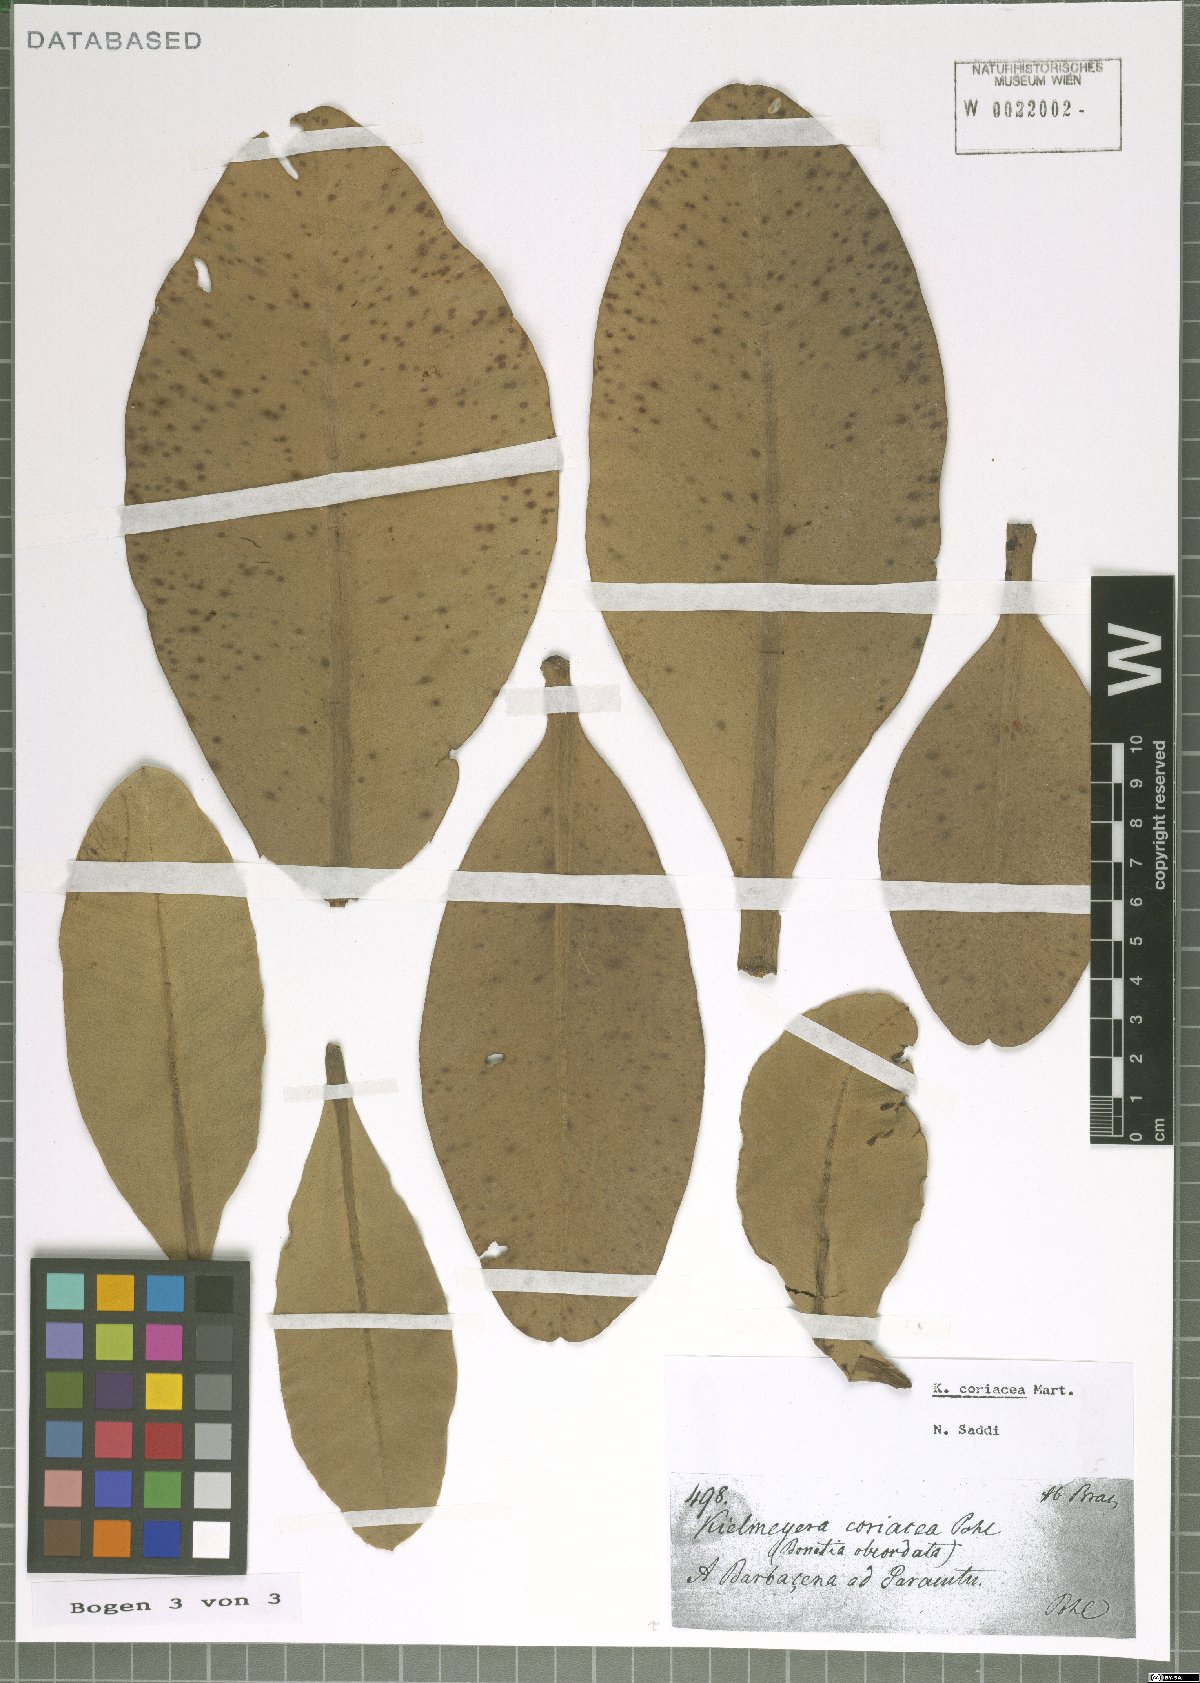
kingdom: Plantae
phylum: Tracheophyta
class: Magnoliopsida
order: Malpighiales
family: Calophyllaceae
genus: Kielmeyera
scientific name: Kielmeyera coriacea
